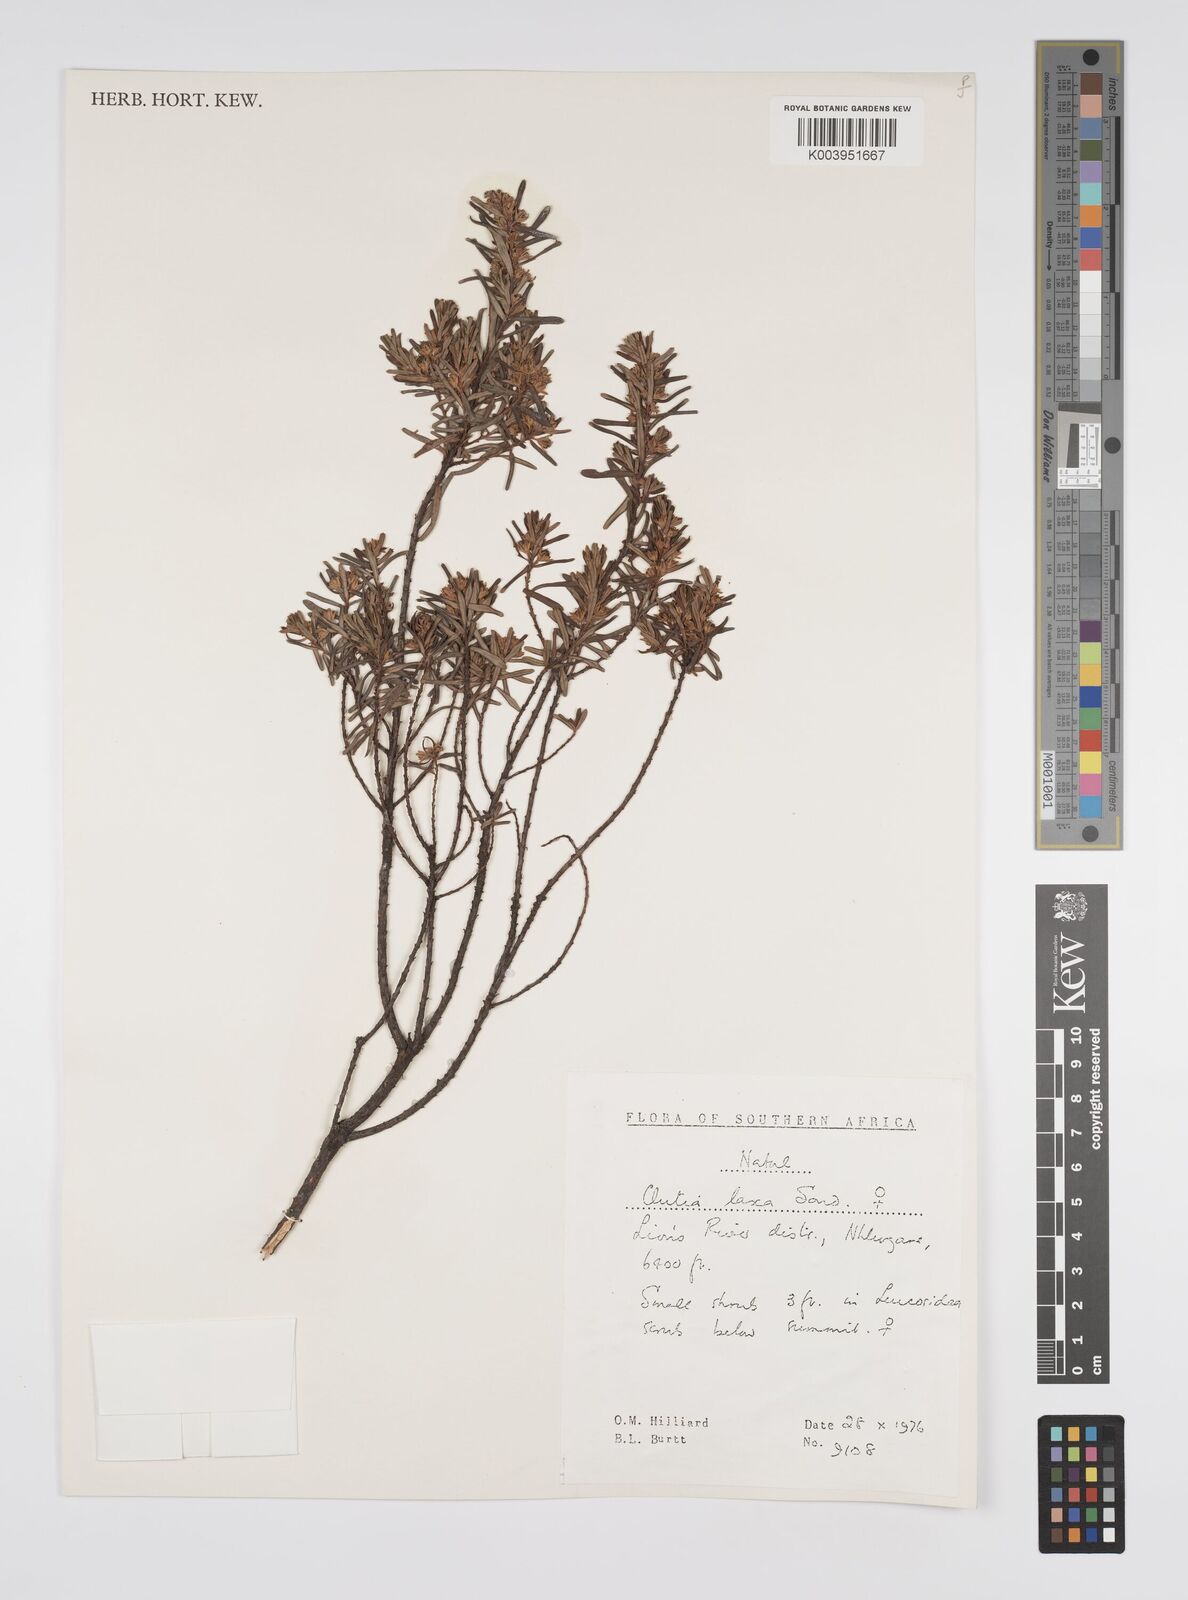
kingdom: Plantae
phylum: Tracheophyta
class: Magnoliopsida
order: Malpighiales
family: Peraceae
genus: Clutia
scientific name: Clutia laxa
